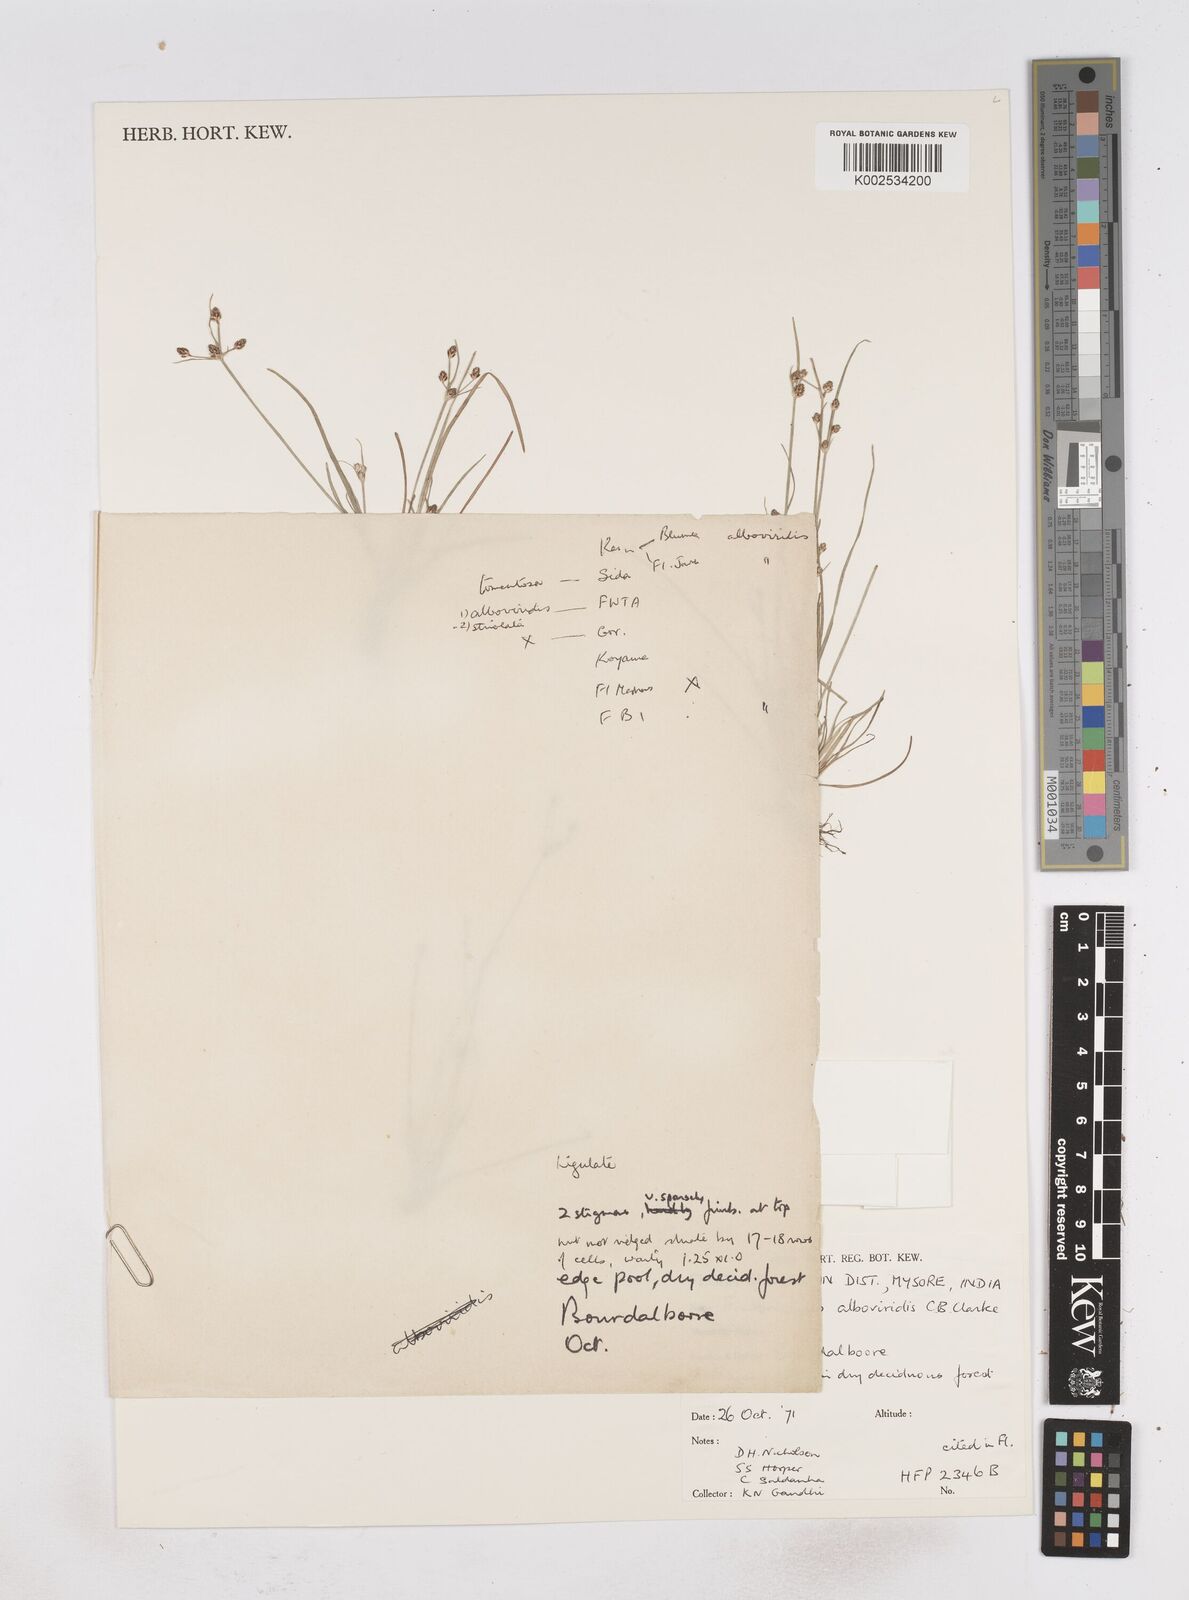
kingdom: Plantae
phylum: Tracheophyta
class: Liliopsida
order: Poales
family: Cyperaceae
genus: Fimbristylis
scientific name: Fimbristylis fuscinux
